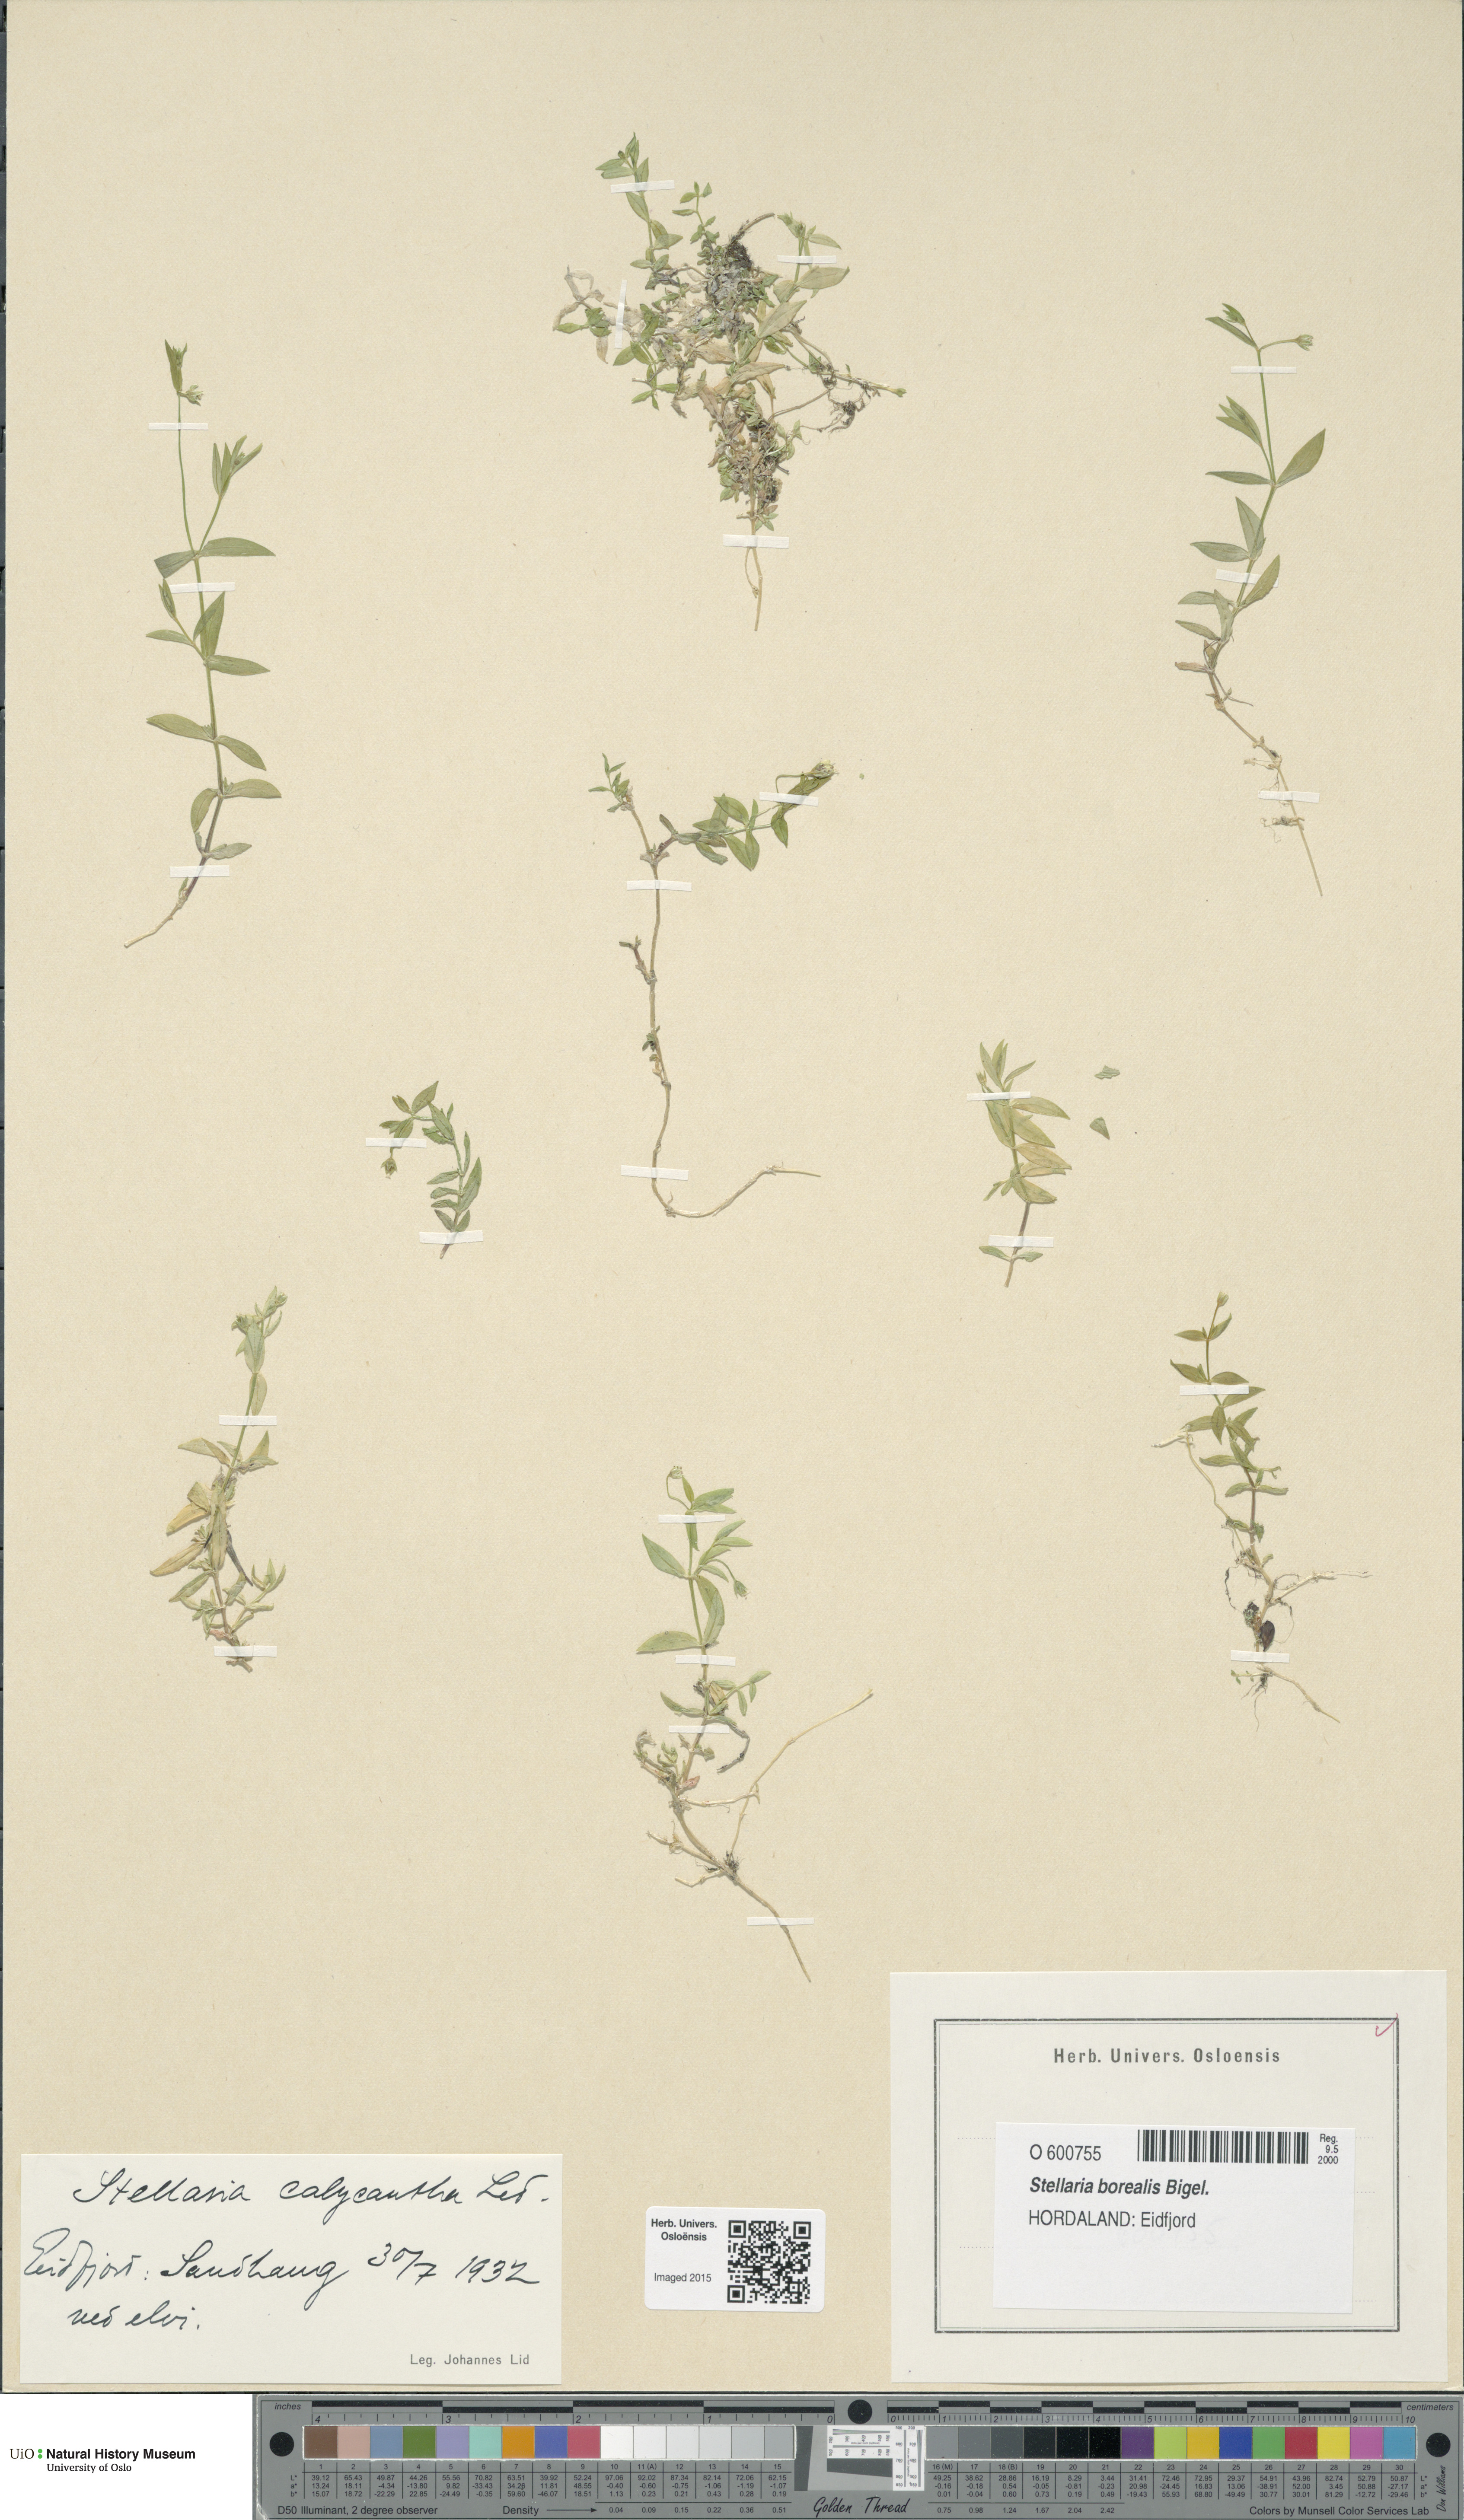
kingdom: Plantae
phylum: Tracheophyta
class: Magnoliopsida
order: Caryophyllales
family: Caryophyllaceae
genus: Stellaria
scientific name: Stellaria borealis
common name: Boreal starwort
